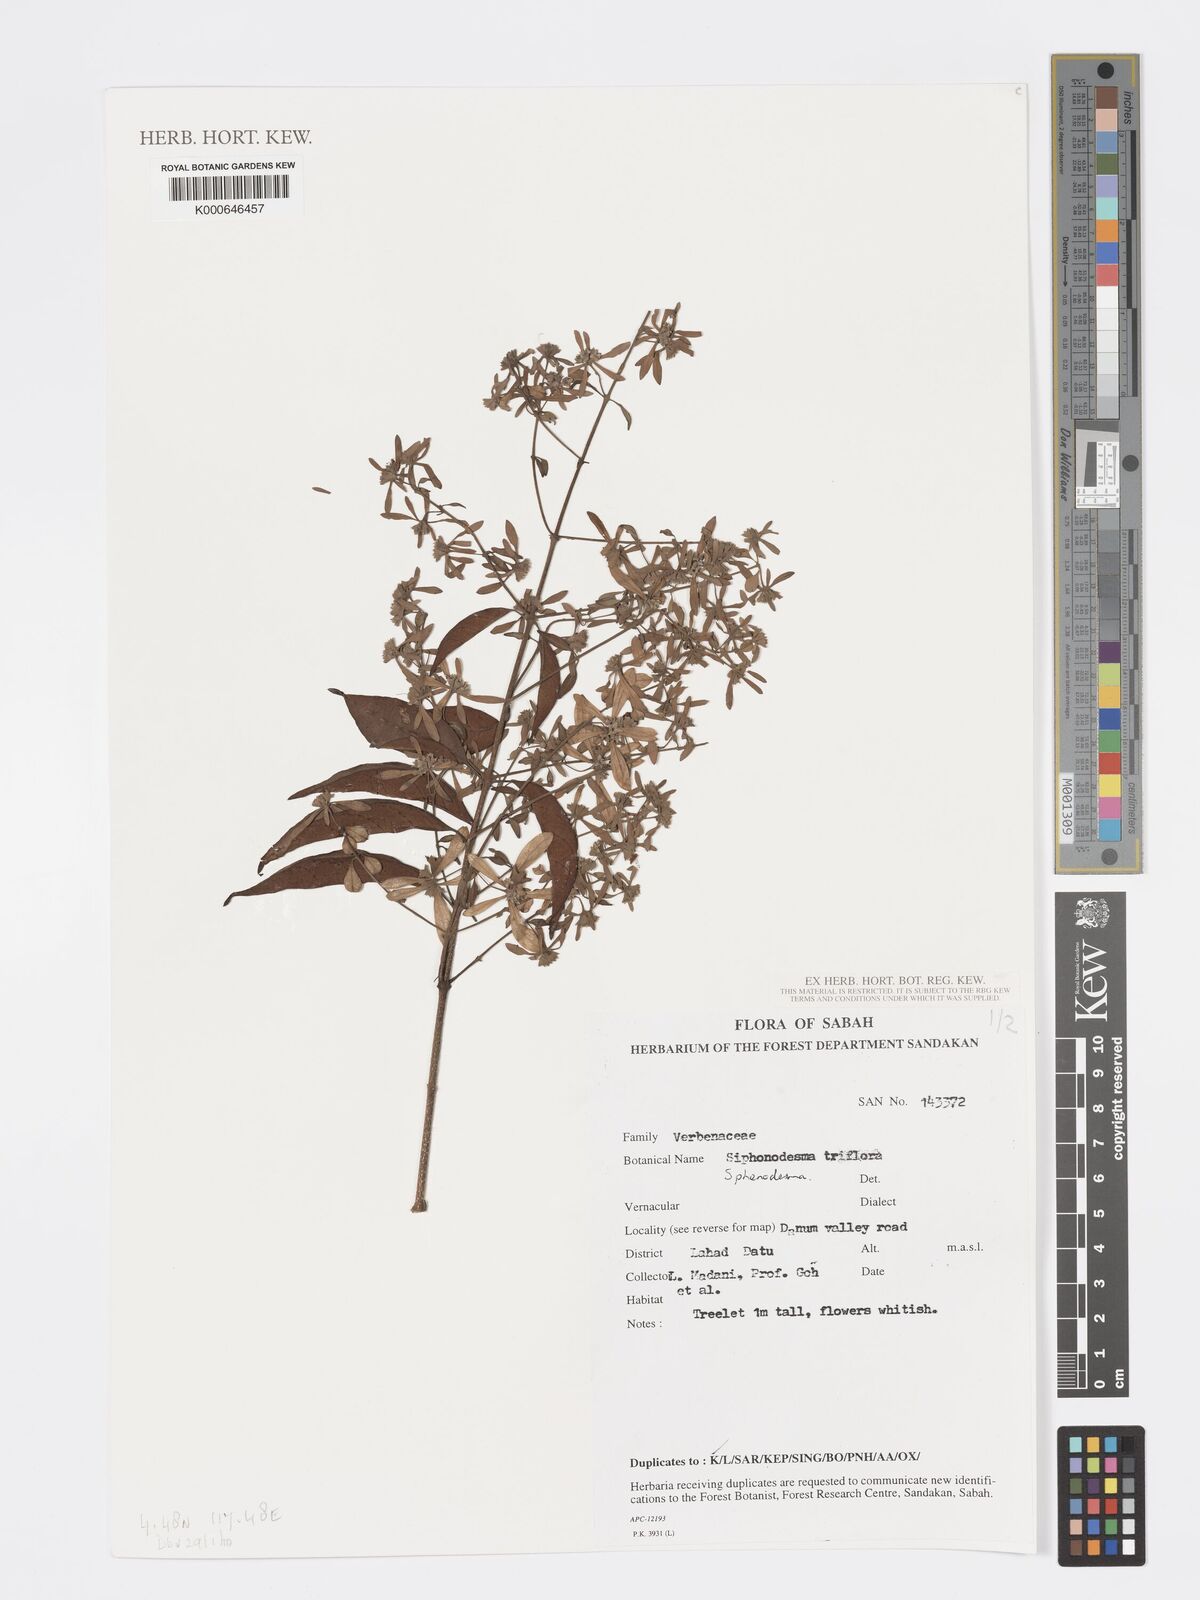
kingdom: Plantae
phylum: Tracheophyta
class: Magnoliopsida
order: Lamiales
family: Lamiaceae
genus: Sphenodesme
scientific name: Sphenodesme
